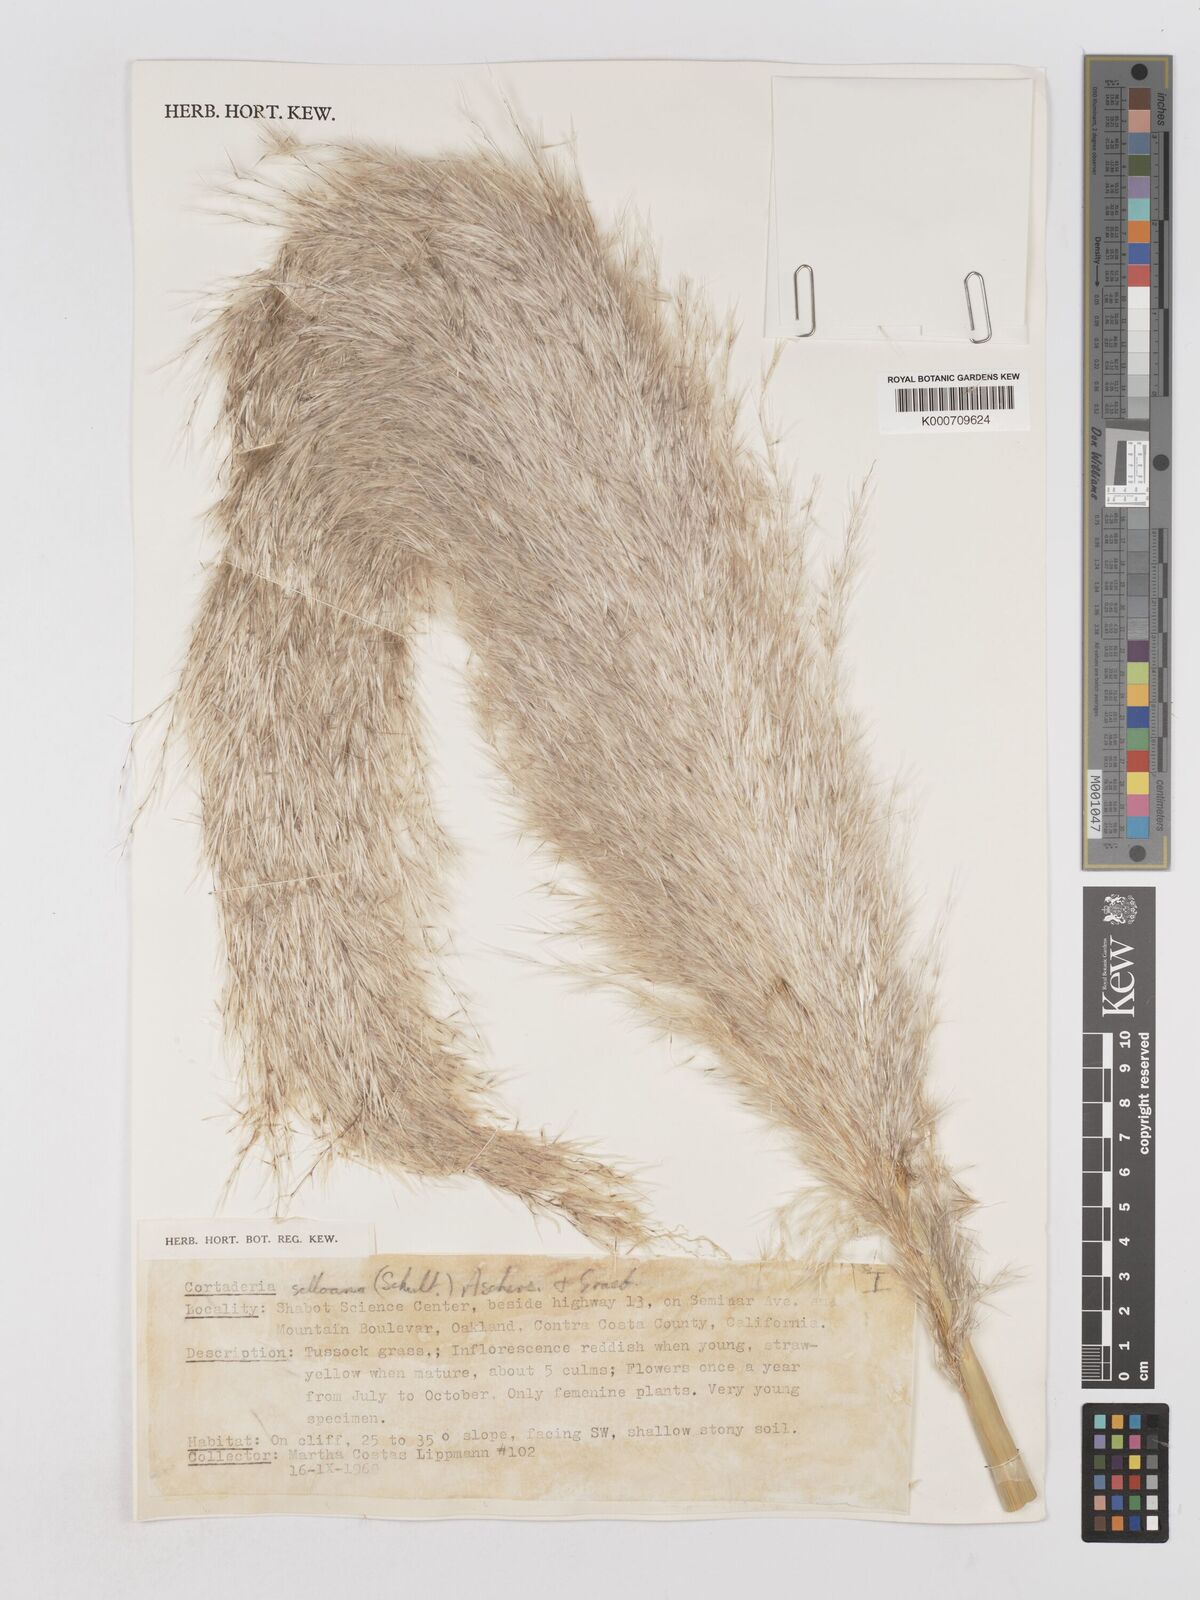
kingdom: Plantae
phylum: Tracheophyta
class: Liliopsida
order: Poales
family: Poaceae
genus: Cortaderia
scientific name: Cortaderia selloana
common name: Uruguayan pampas grass
